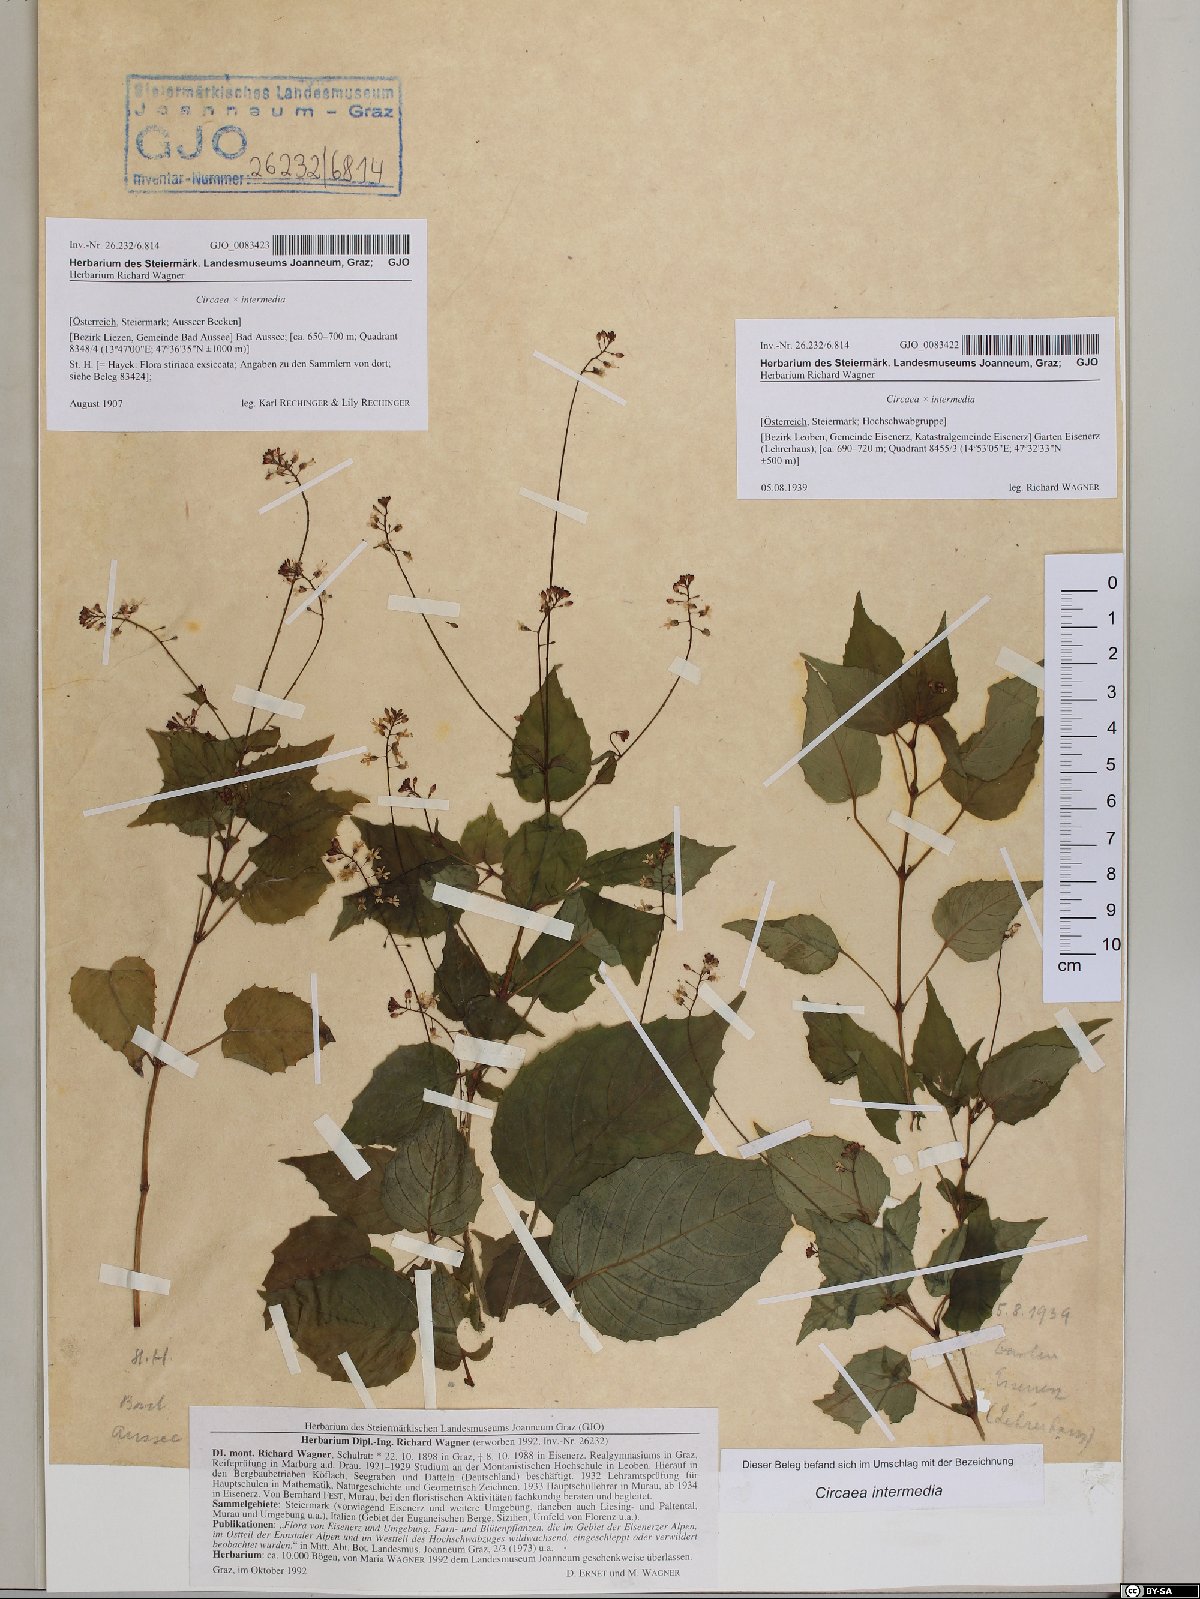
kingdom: Plantae
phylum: Tracheophyta
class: Magnoliopsida
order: Myrtales
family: Onagraceae
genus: Circaea
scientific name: Circaea intermedia
